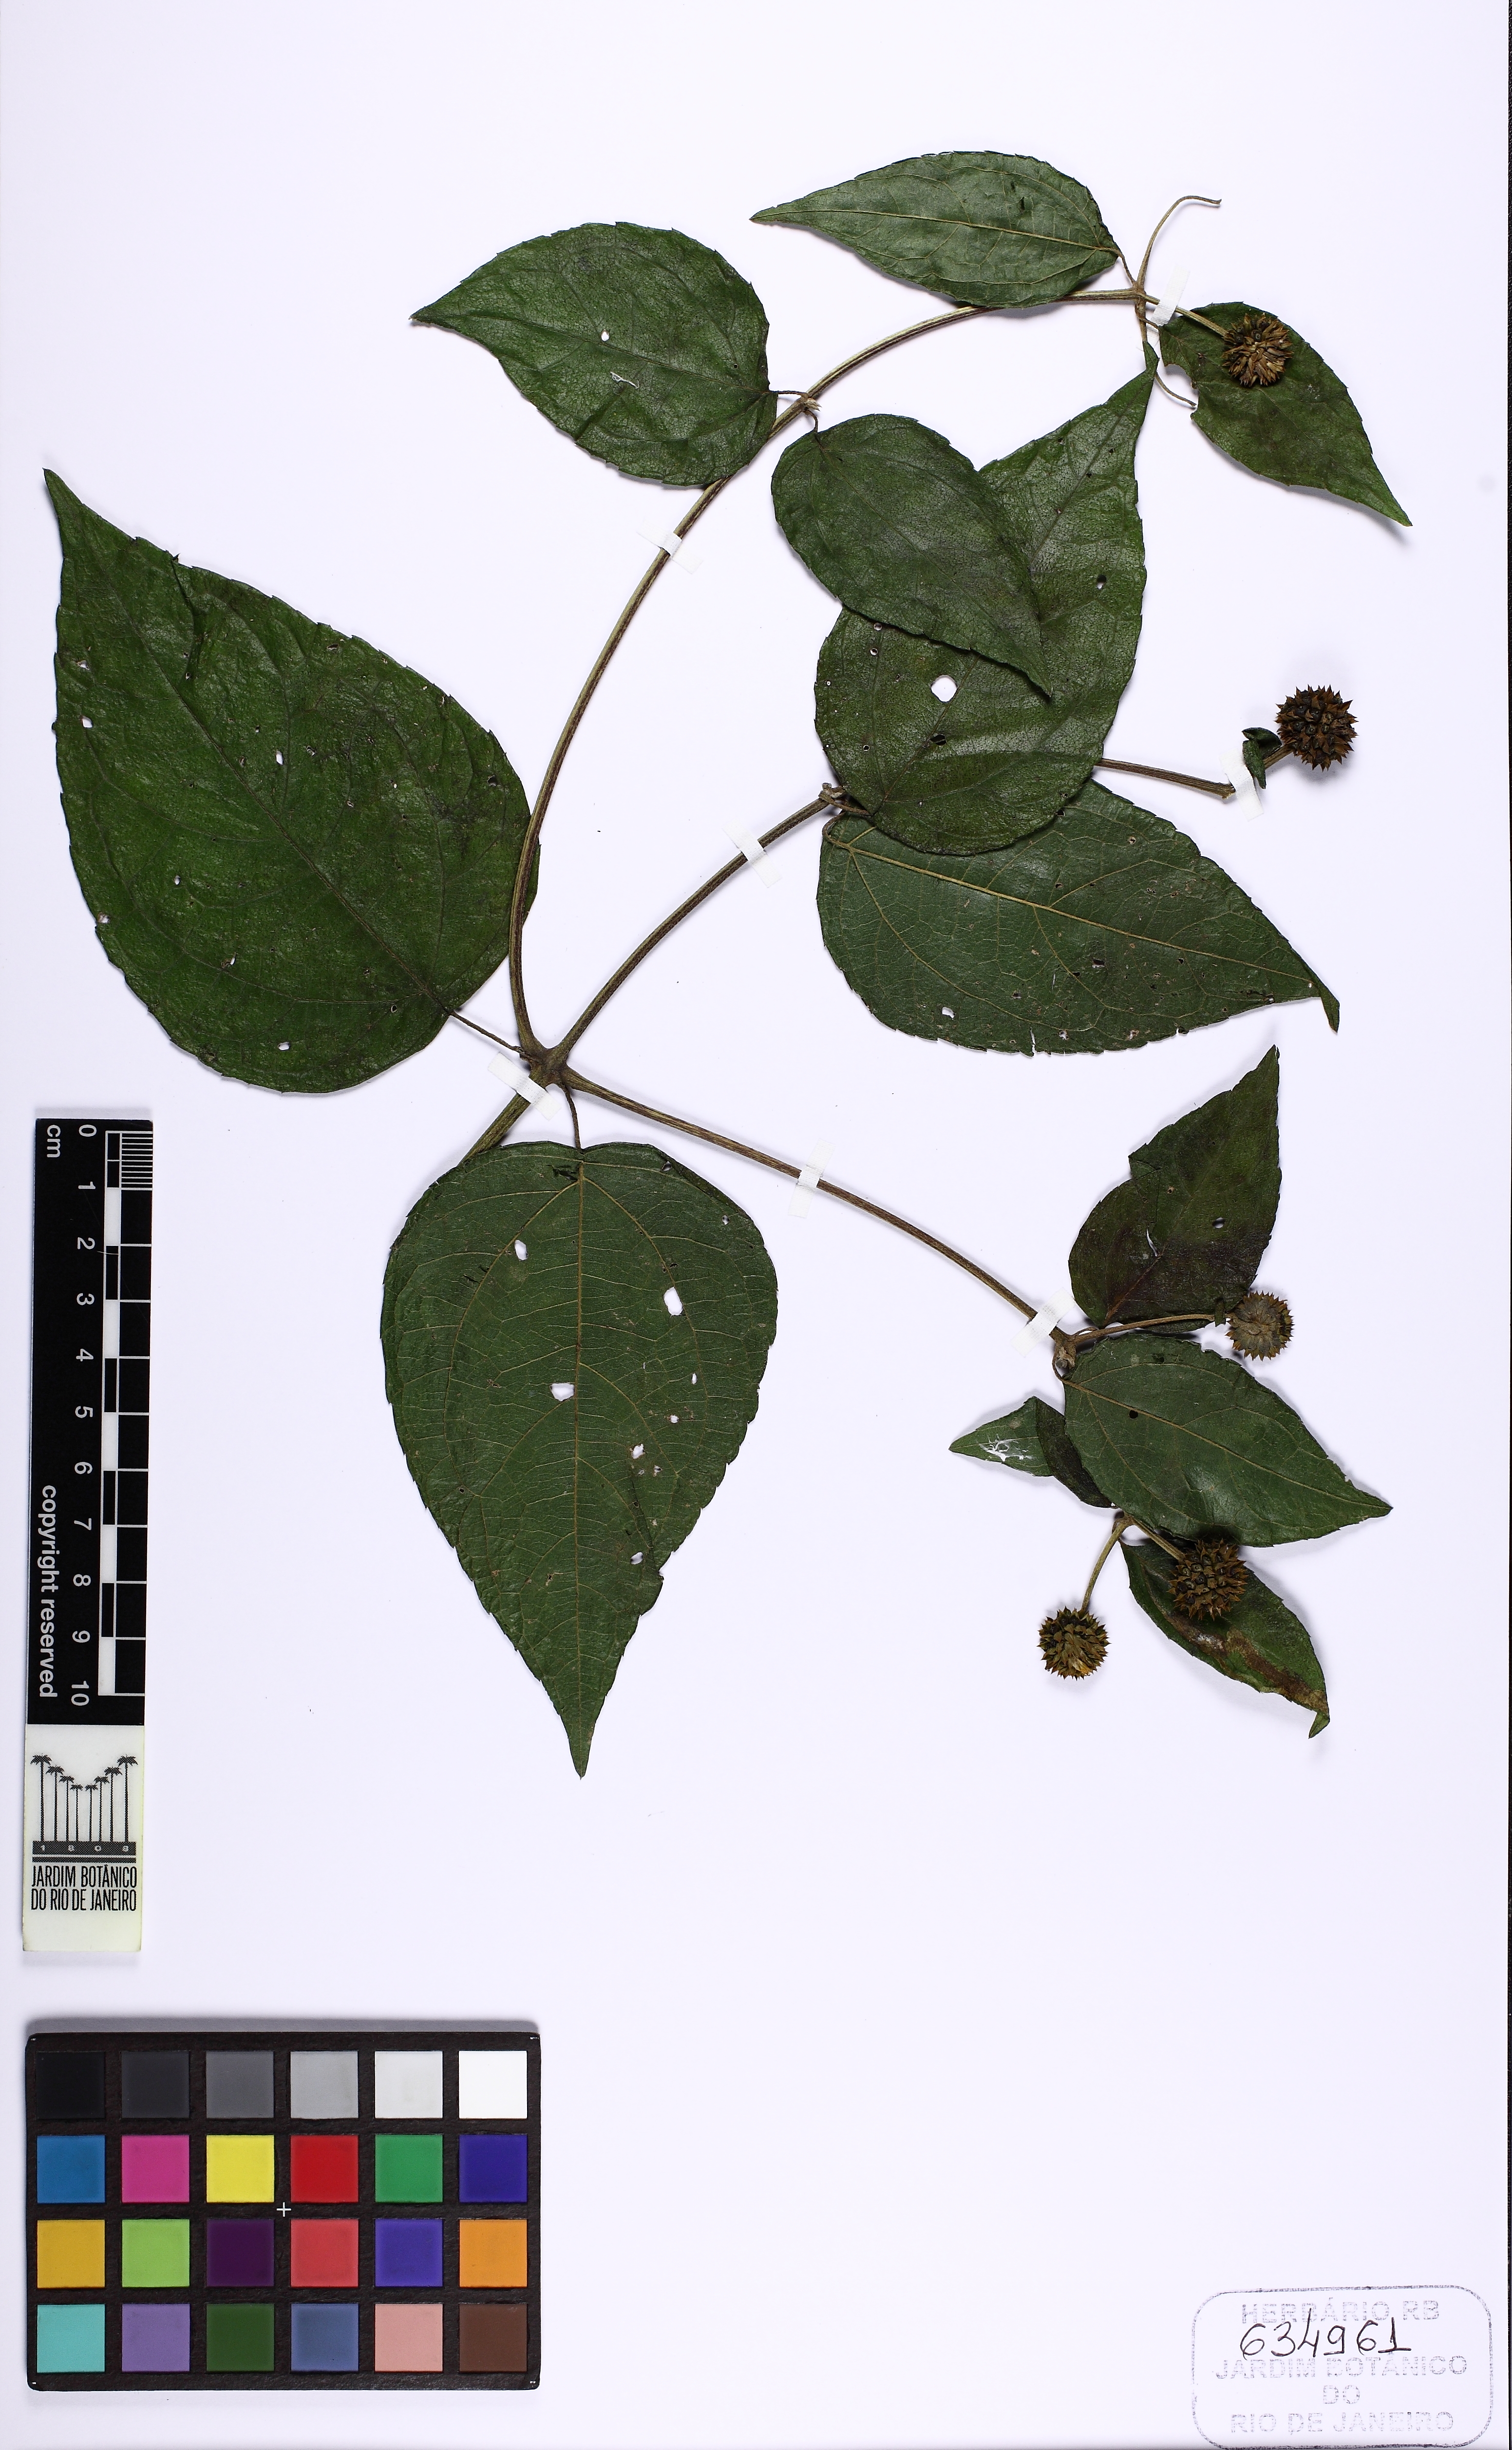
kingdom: Plantae
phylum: Tracheophyta
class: Magnoliopsida
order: Asterales
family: Asteraceae
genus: Tilesia
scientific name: Tilesia baccata
